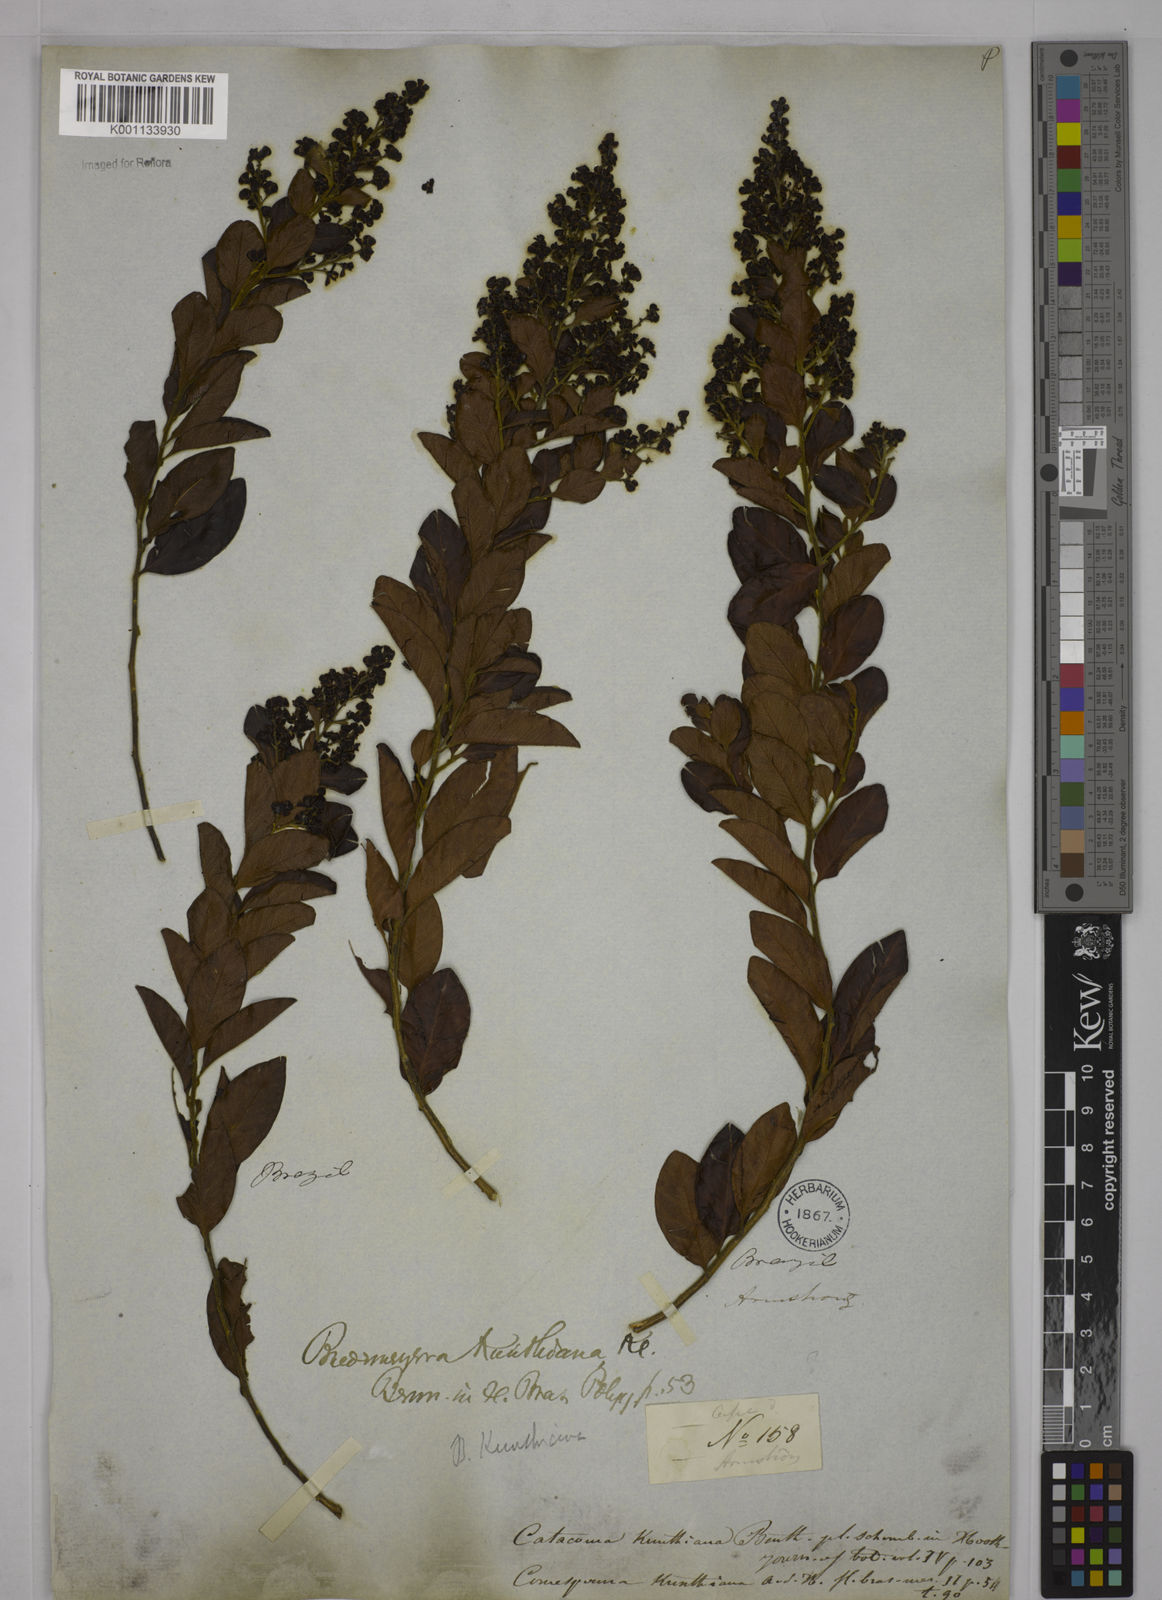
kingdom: Plantae
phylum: Tracheophyta
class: Magnoliopsida
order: Fabales
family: Polygalaceae
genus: Bredemeyera
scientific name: Bredemeyera hebeclada
